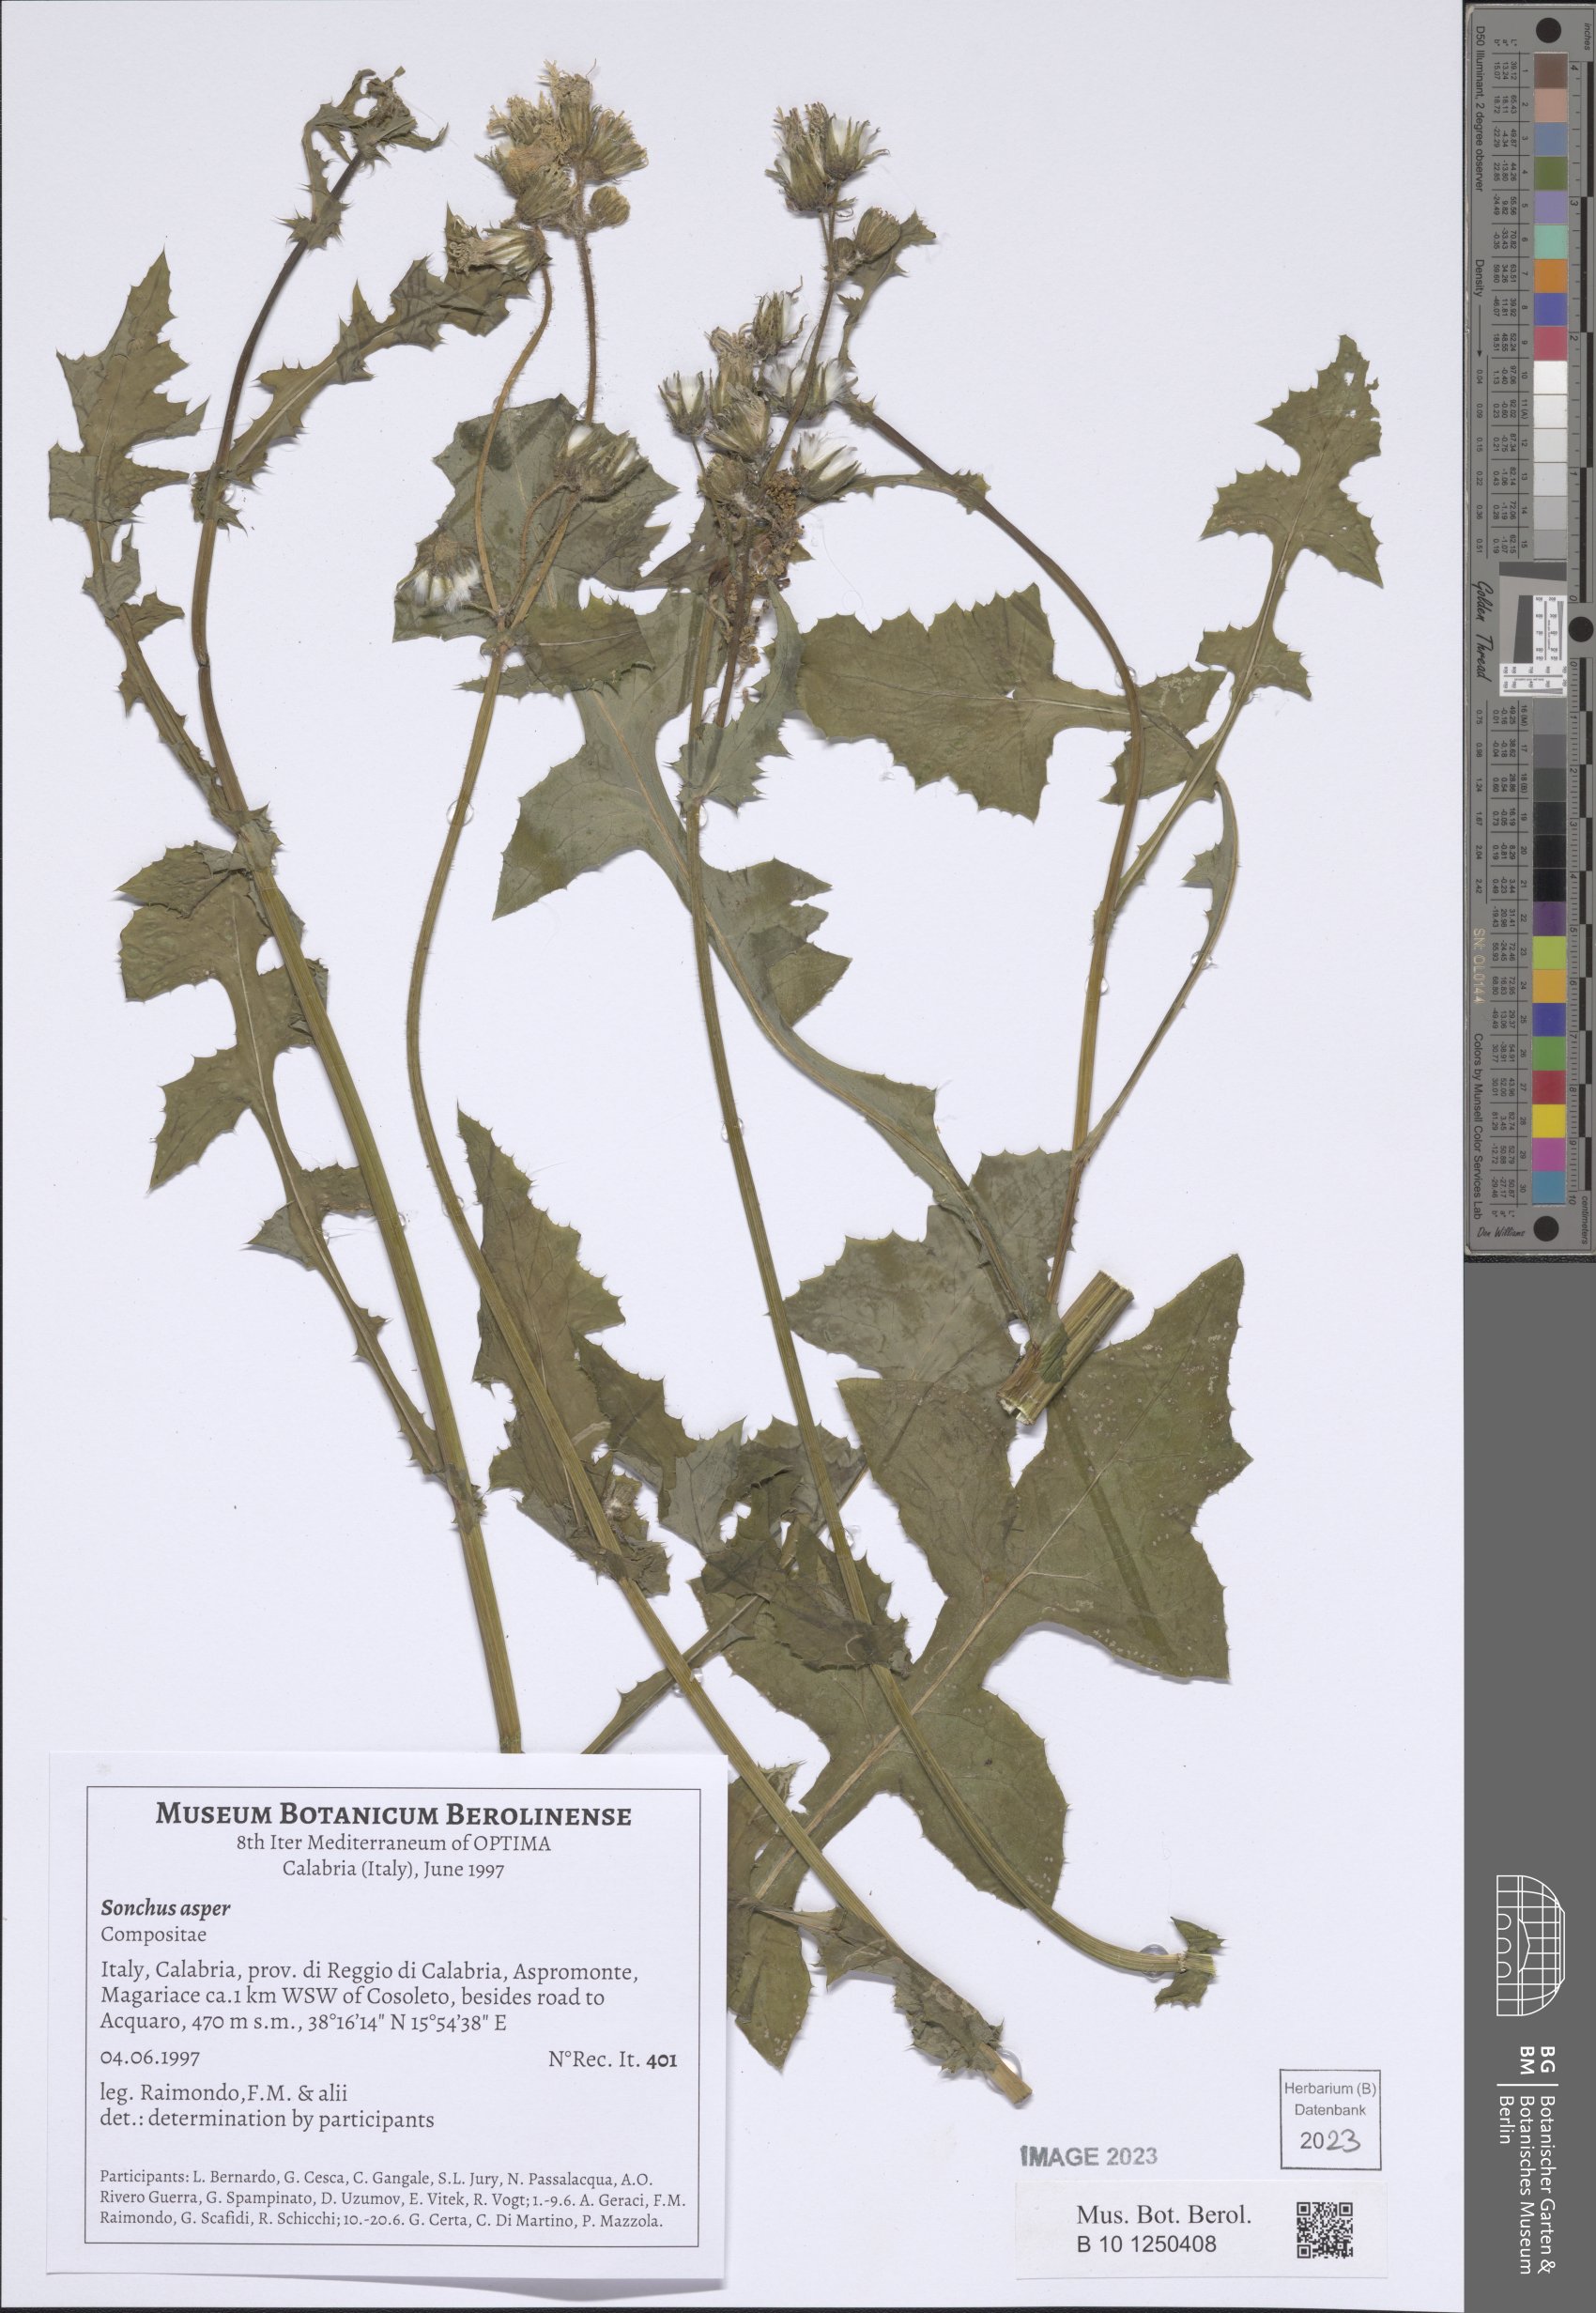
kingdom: Plantae
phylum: Tracheophyta
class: Magnoliopsida
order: Asterales
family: Asteraceae
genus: Sonchus
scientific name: Sonchus asper
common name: Prickly sow-thistle
